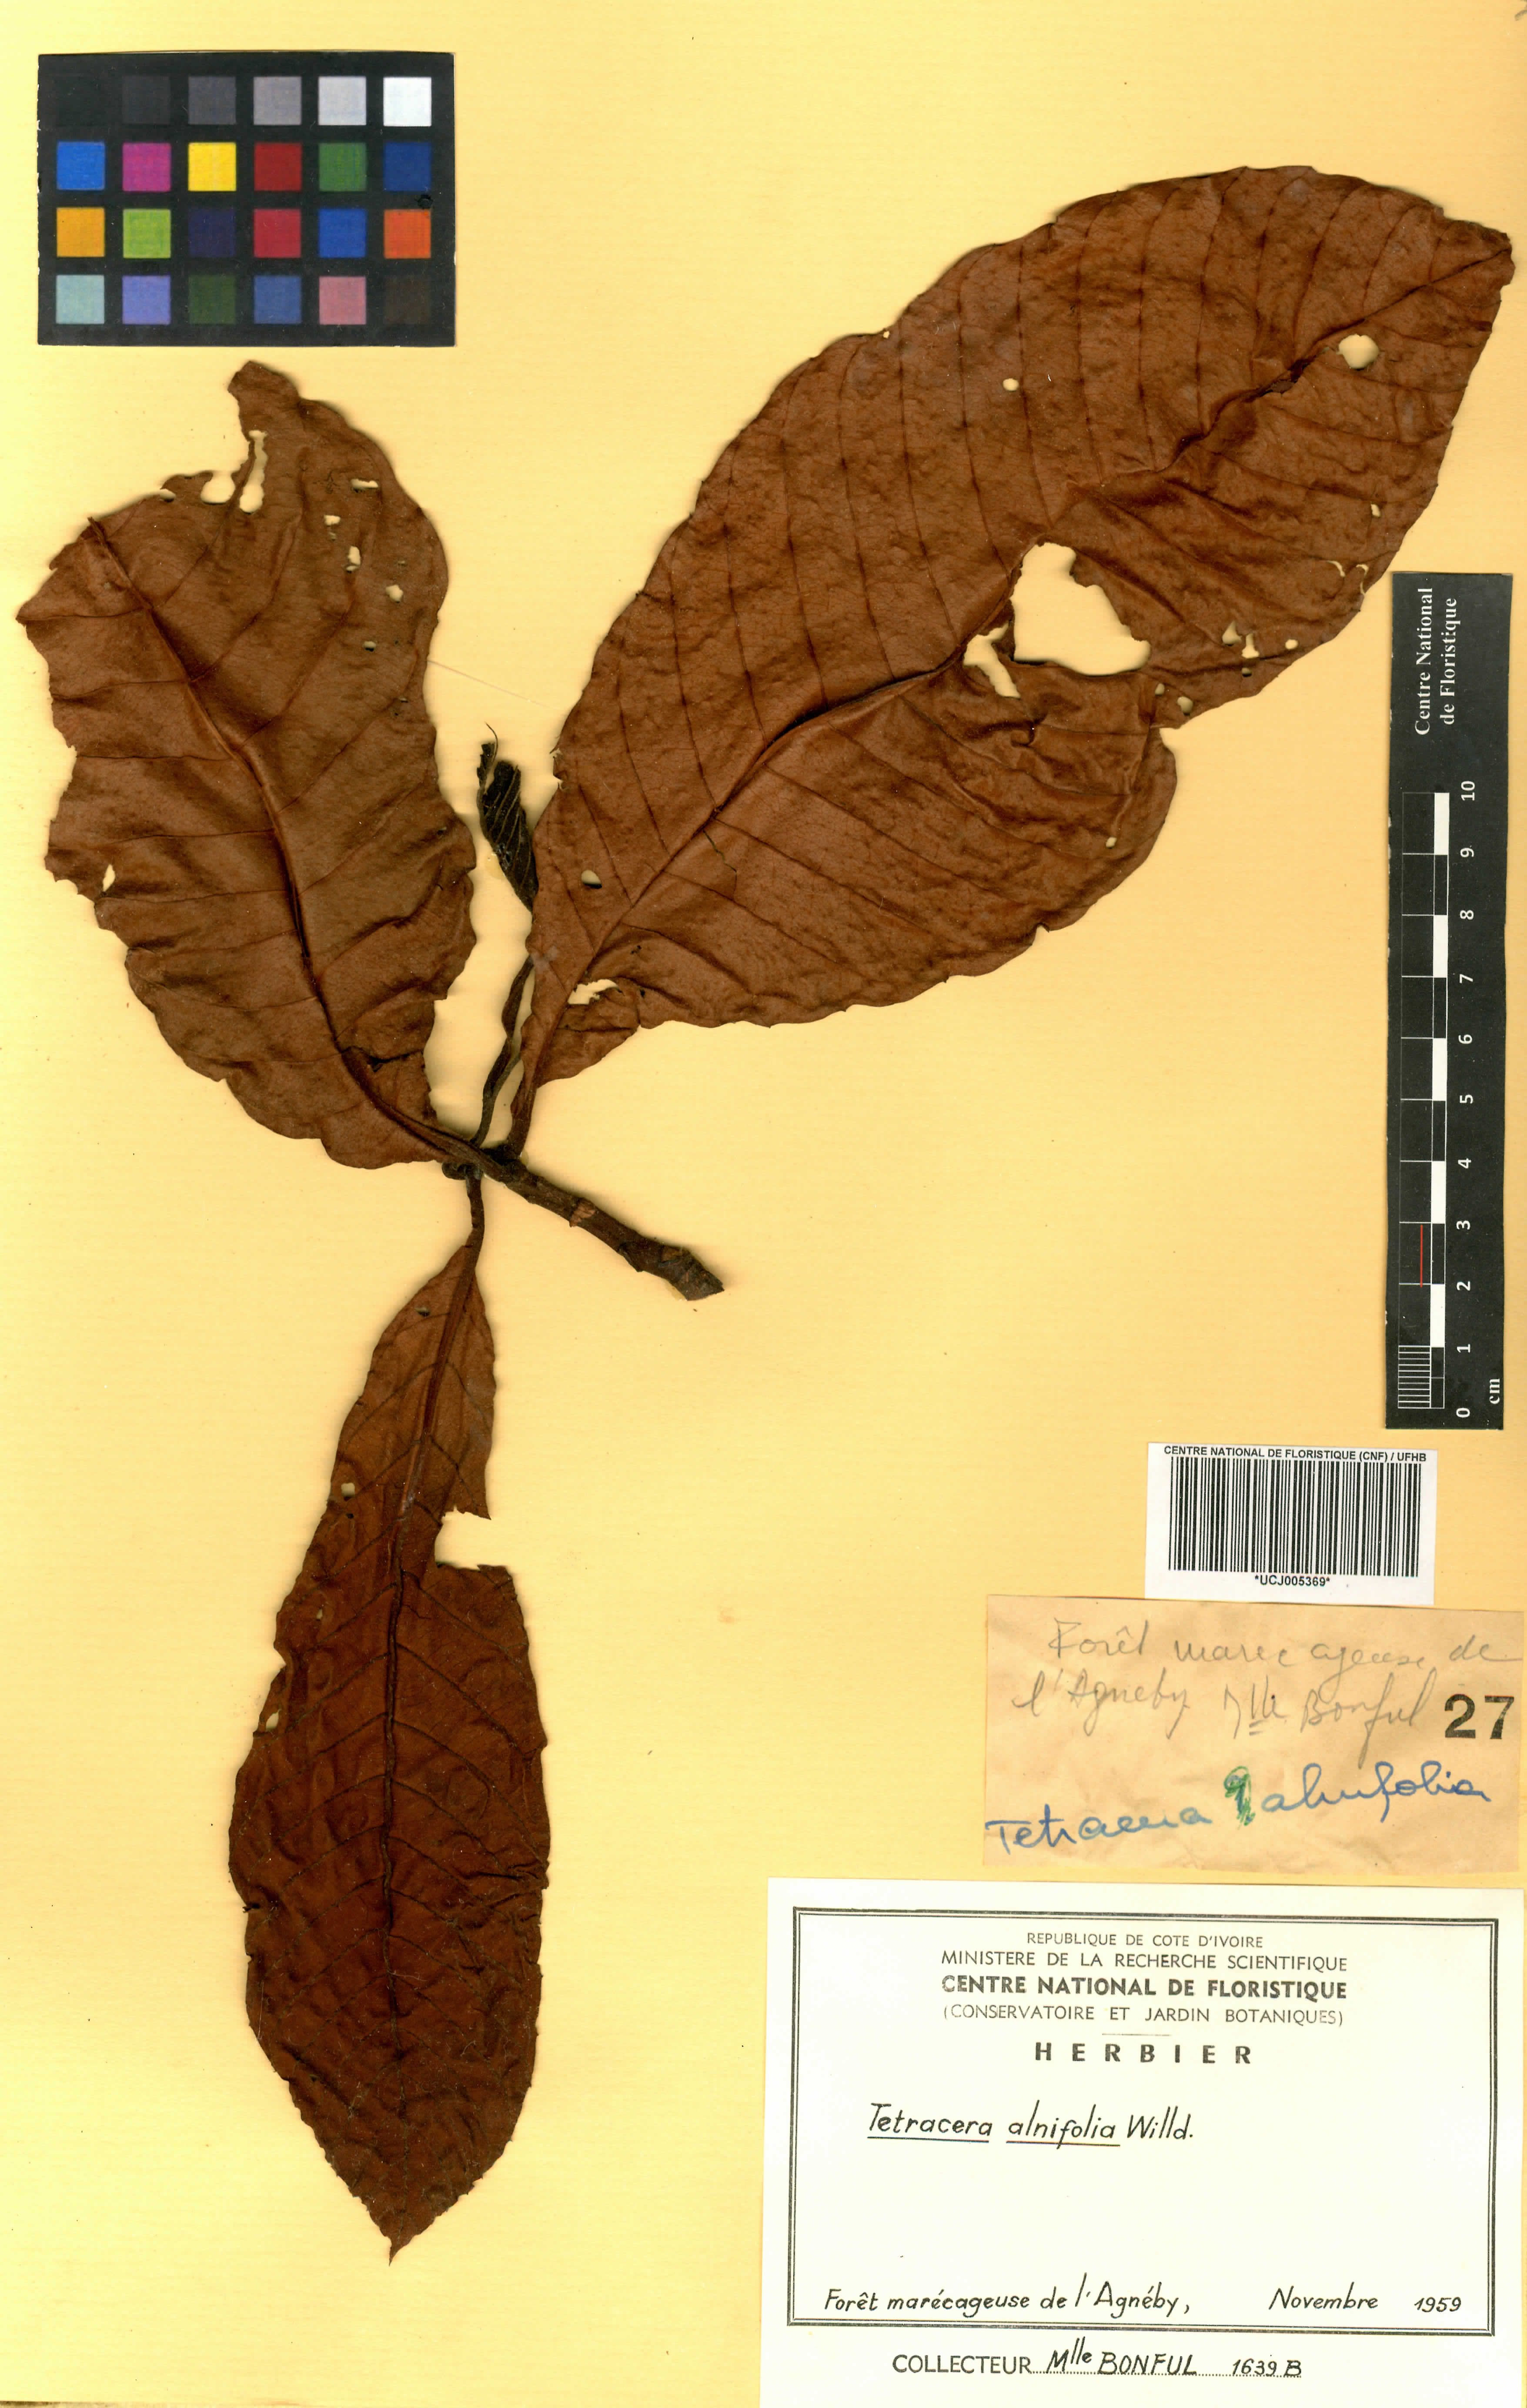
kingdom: Plantae
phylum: Tracheophyta
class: Magnoliopsida
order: Dilleniales
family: Dilleniaceae
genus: Tetracera
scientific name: Tetracera alnifolia
